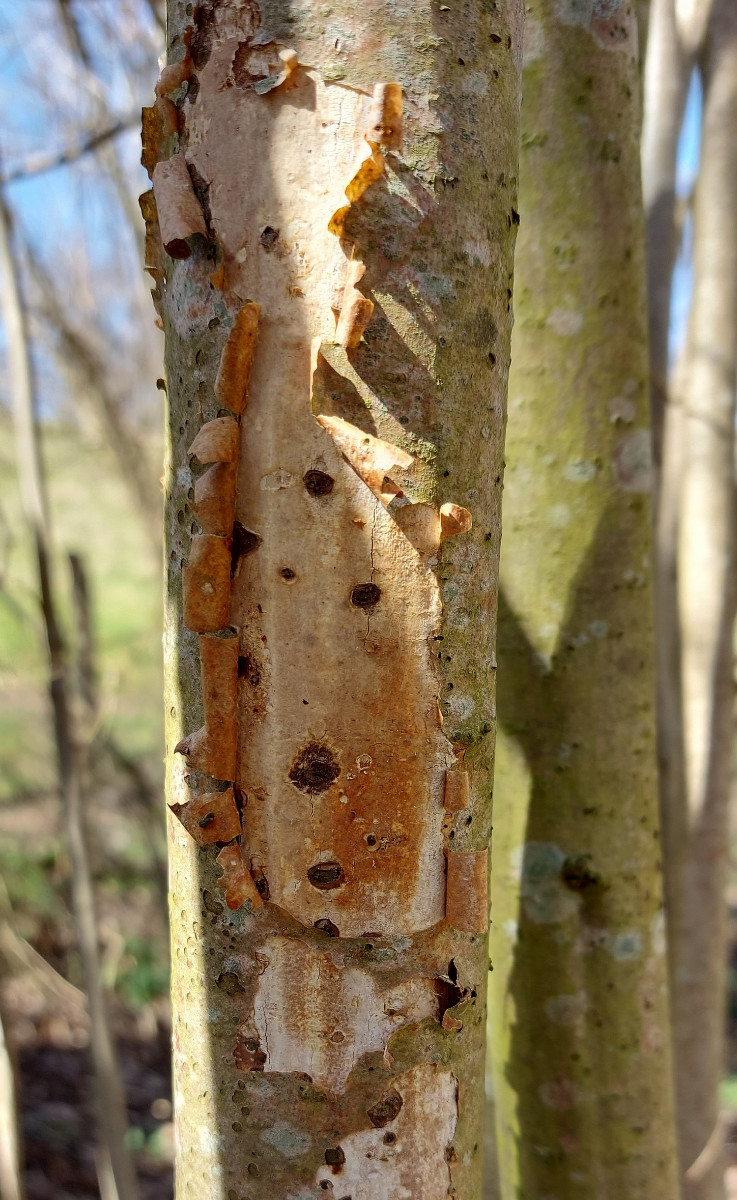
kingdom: Fungi
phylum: Basidiomycota
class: Agaricomycetes
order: Corticiales
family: Vuilleminiaceae
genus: Vuilleminia
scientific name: Vuilleminia coryli
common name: hassel-barksprænger
